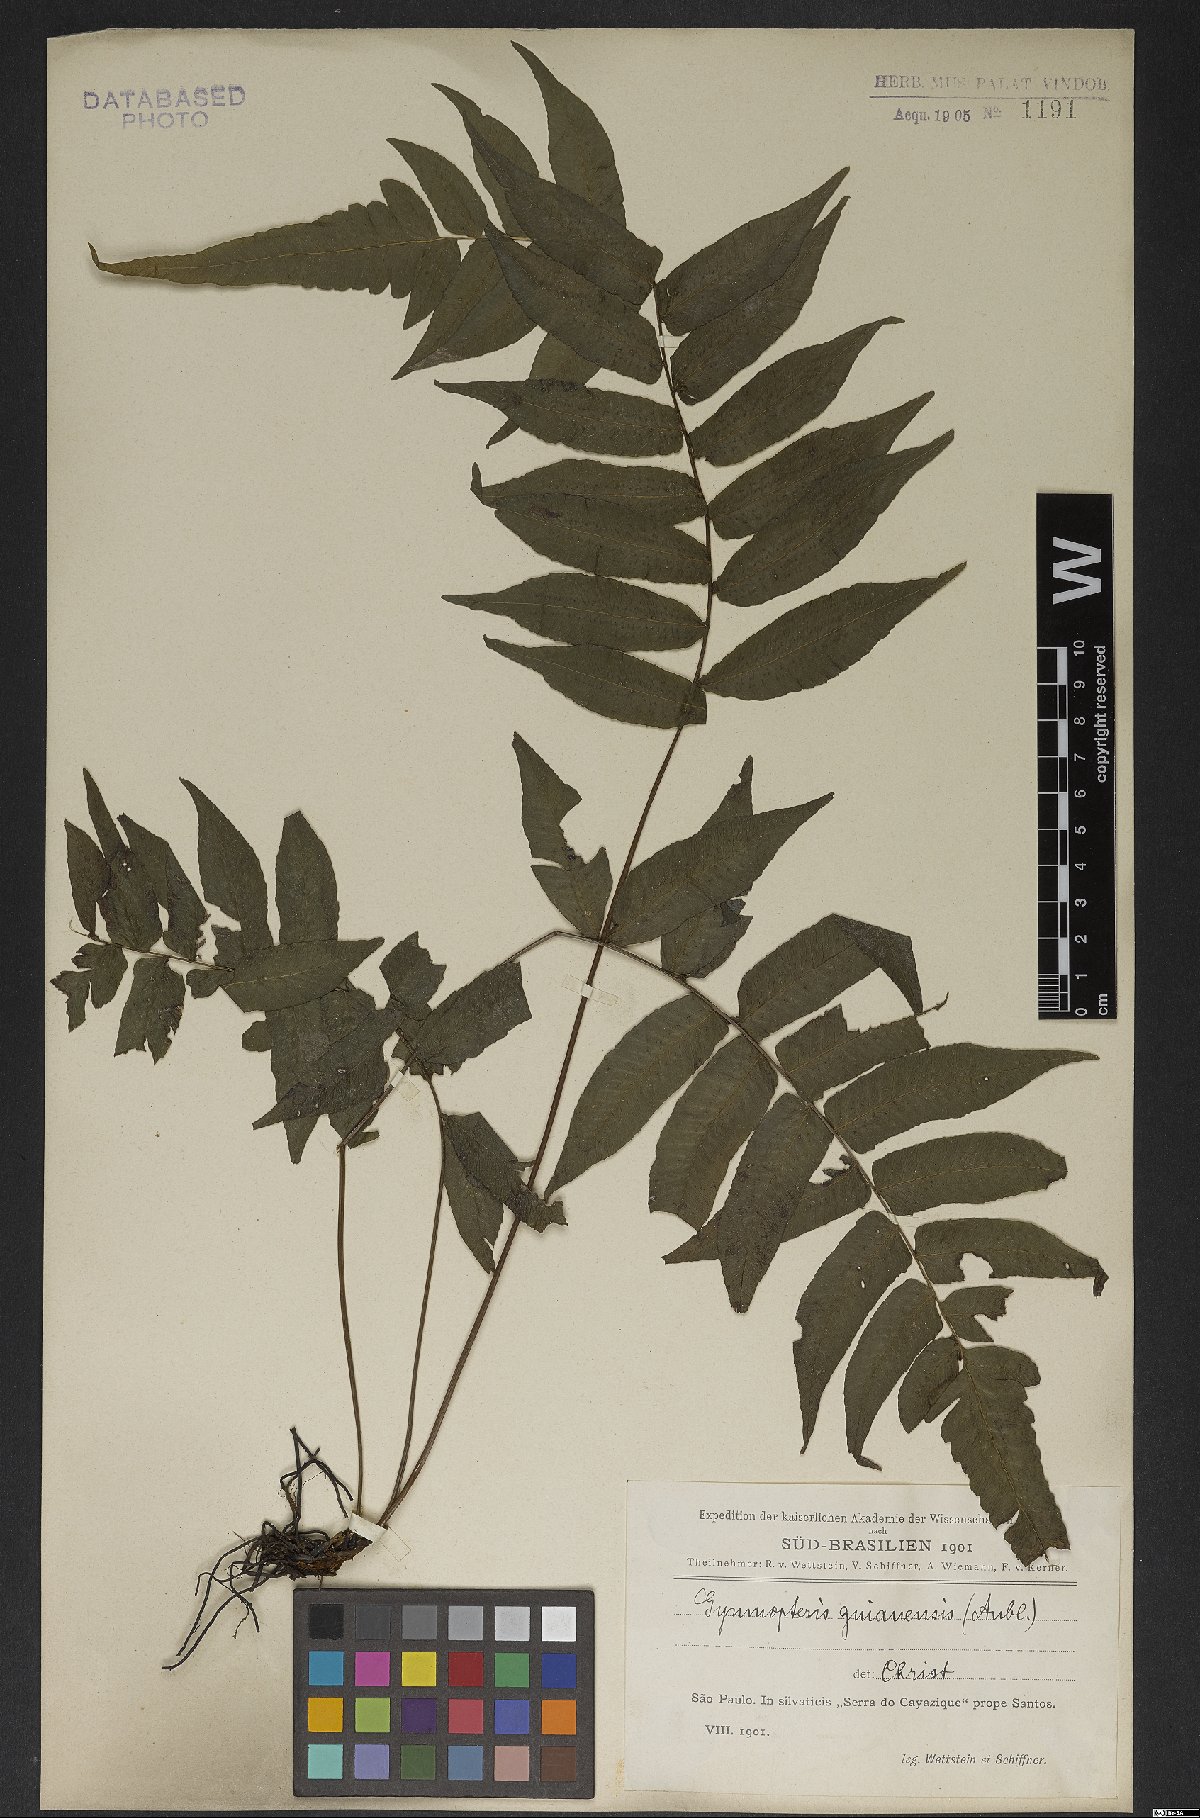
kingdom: Plantae
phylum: Tracheophyta
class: Polypodiopsida
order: Polypodiales
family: Dryopteridaceae
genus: Mickelia
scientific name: Mickelia guianensis
